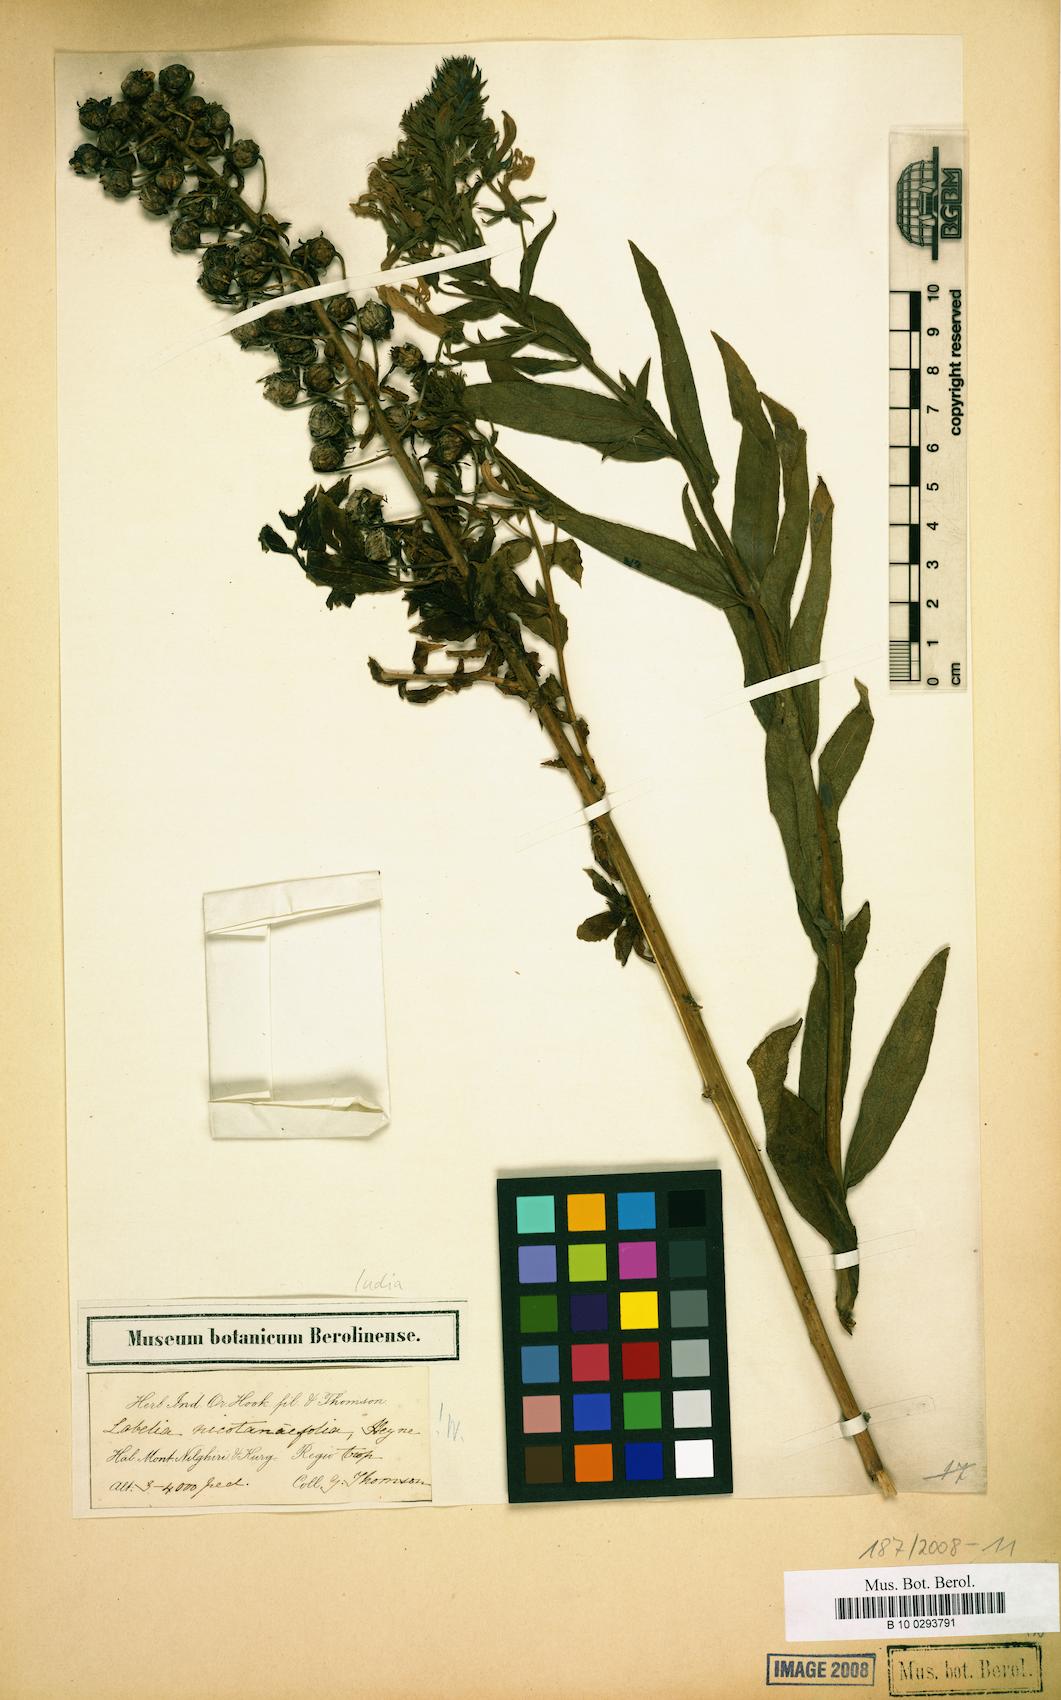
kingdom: Plantae
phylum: Tracheophyta
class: Magnoliopsida
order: Asterales
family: Campanulaceae
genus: Lobelia
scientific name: Lobelia nicotianifolia
